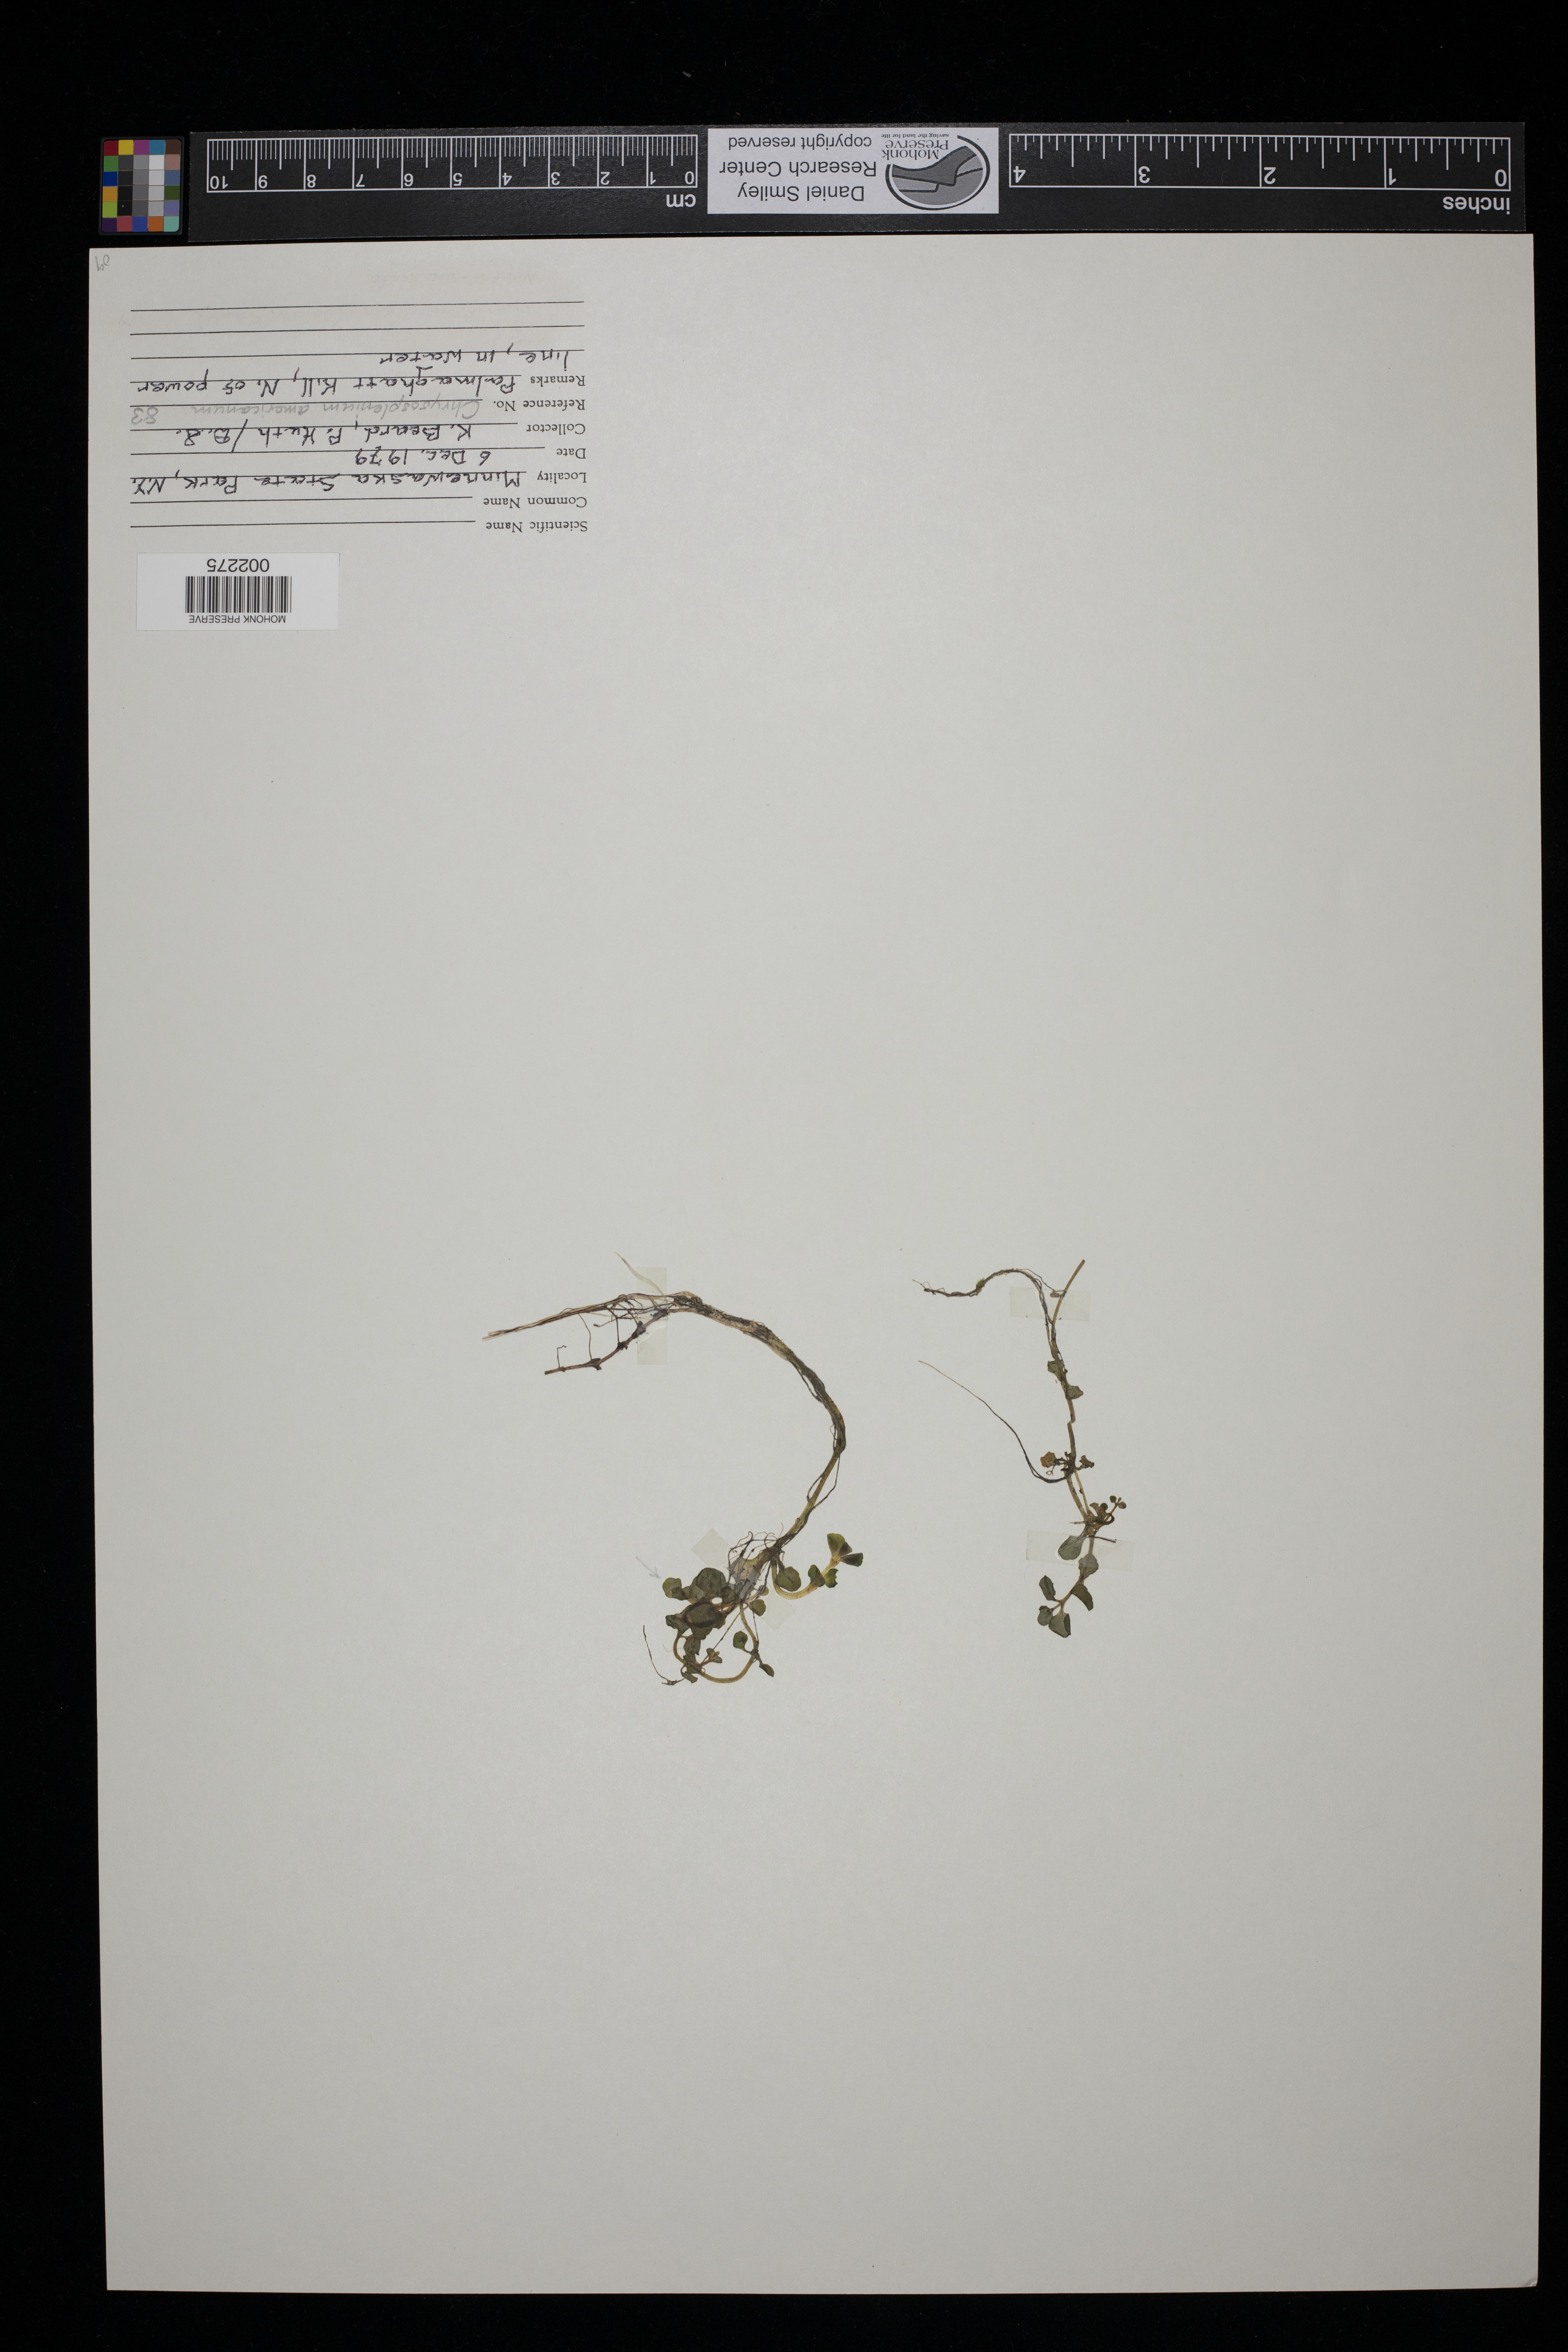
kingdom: Plantae
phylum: Tracheophyta
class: Magnoliopsida
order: Saxifragales
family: Saxifragaceae
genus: Chrysosplenium
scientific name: Chrysosplenium americanum
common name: American golden-saxifrage
